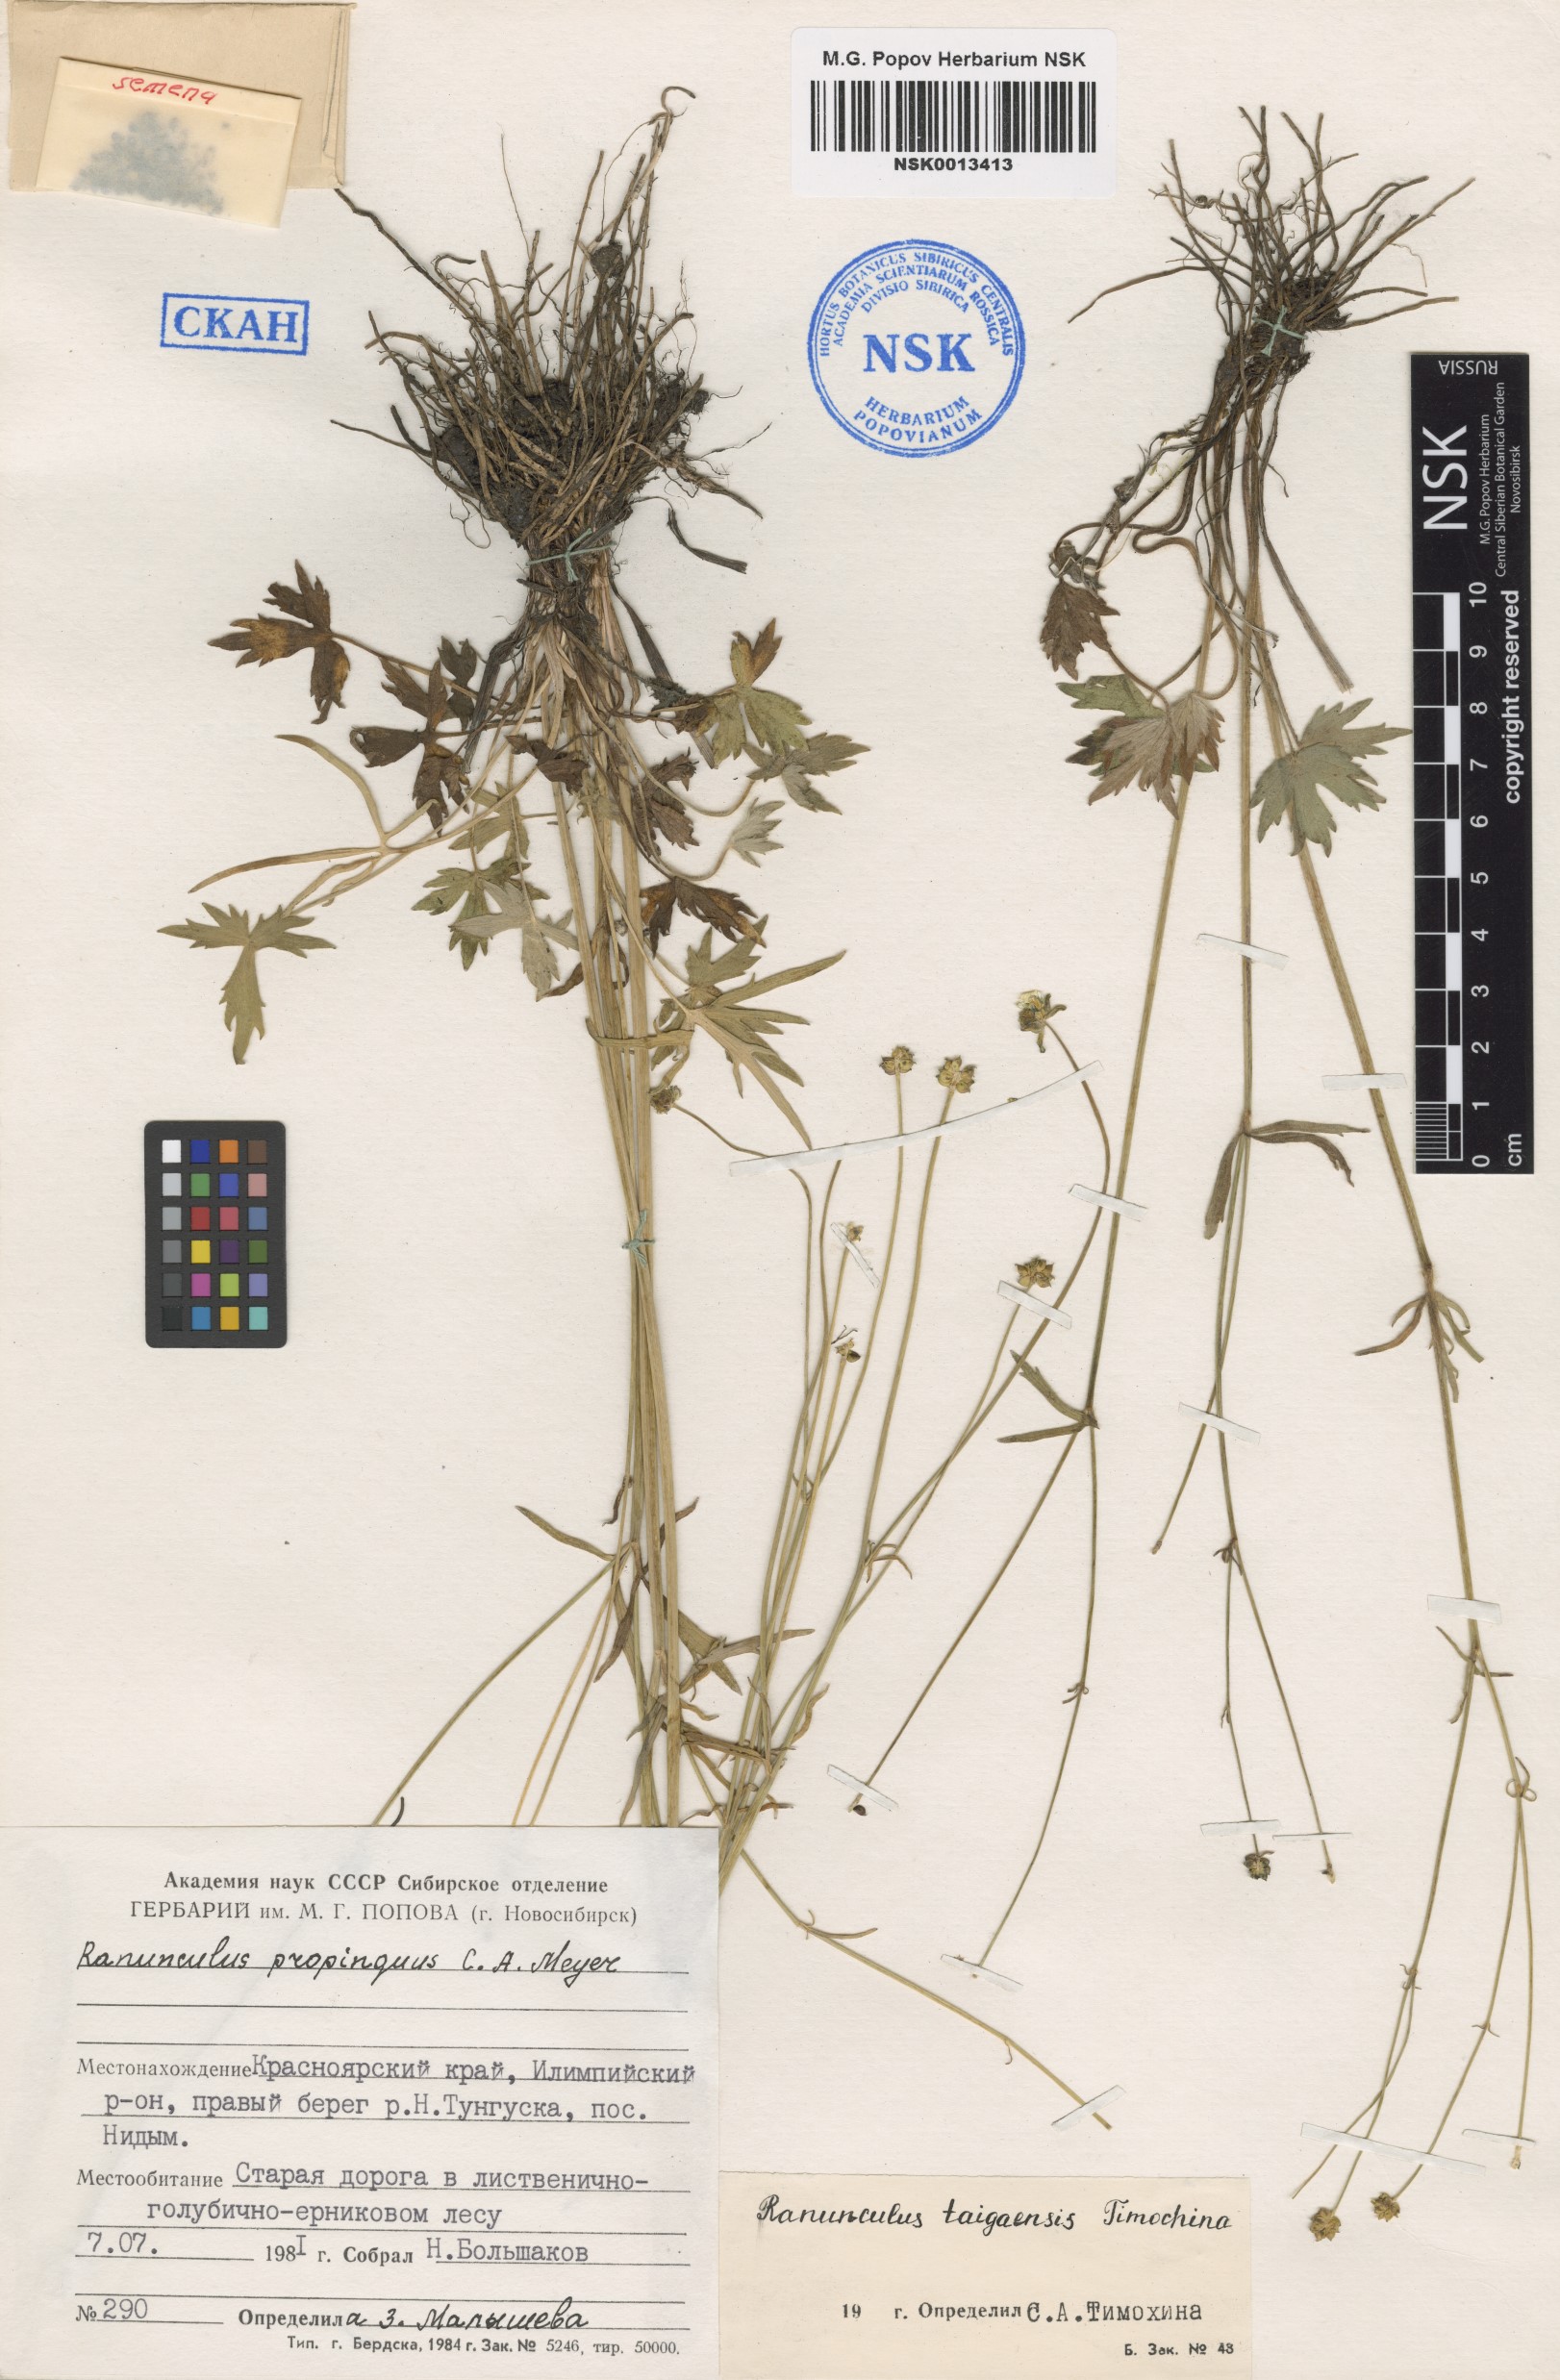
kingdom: Plantae
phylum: Tracheophyta
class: Magnoliopsida
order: Ranunculales
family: Ranunculaceae
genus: Ranunculus
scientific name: Ranunculus taigaensis
